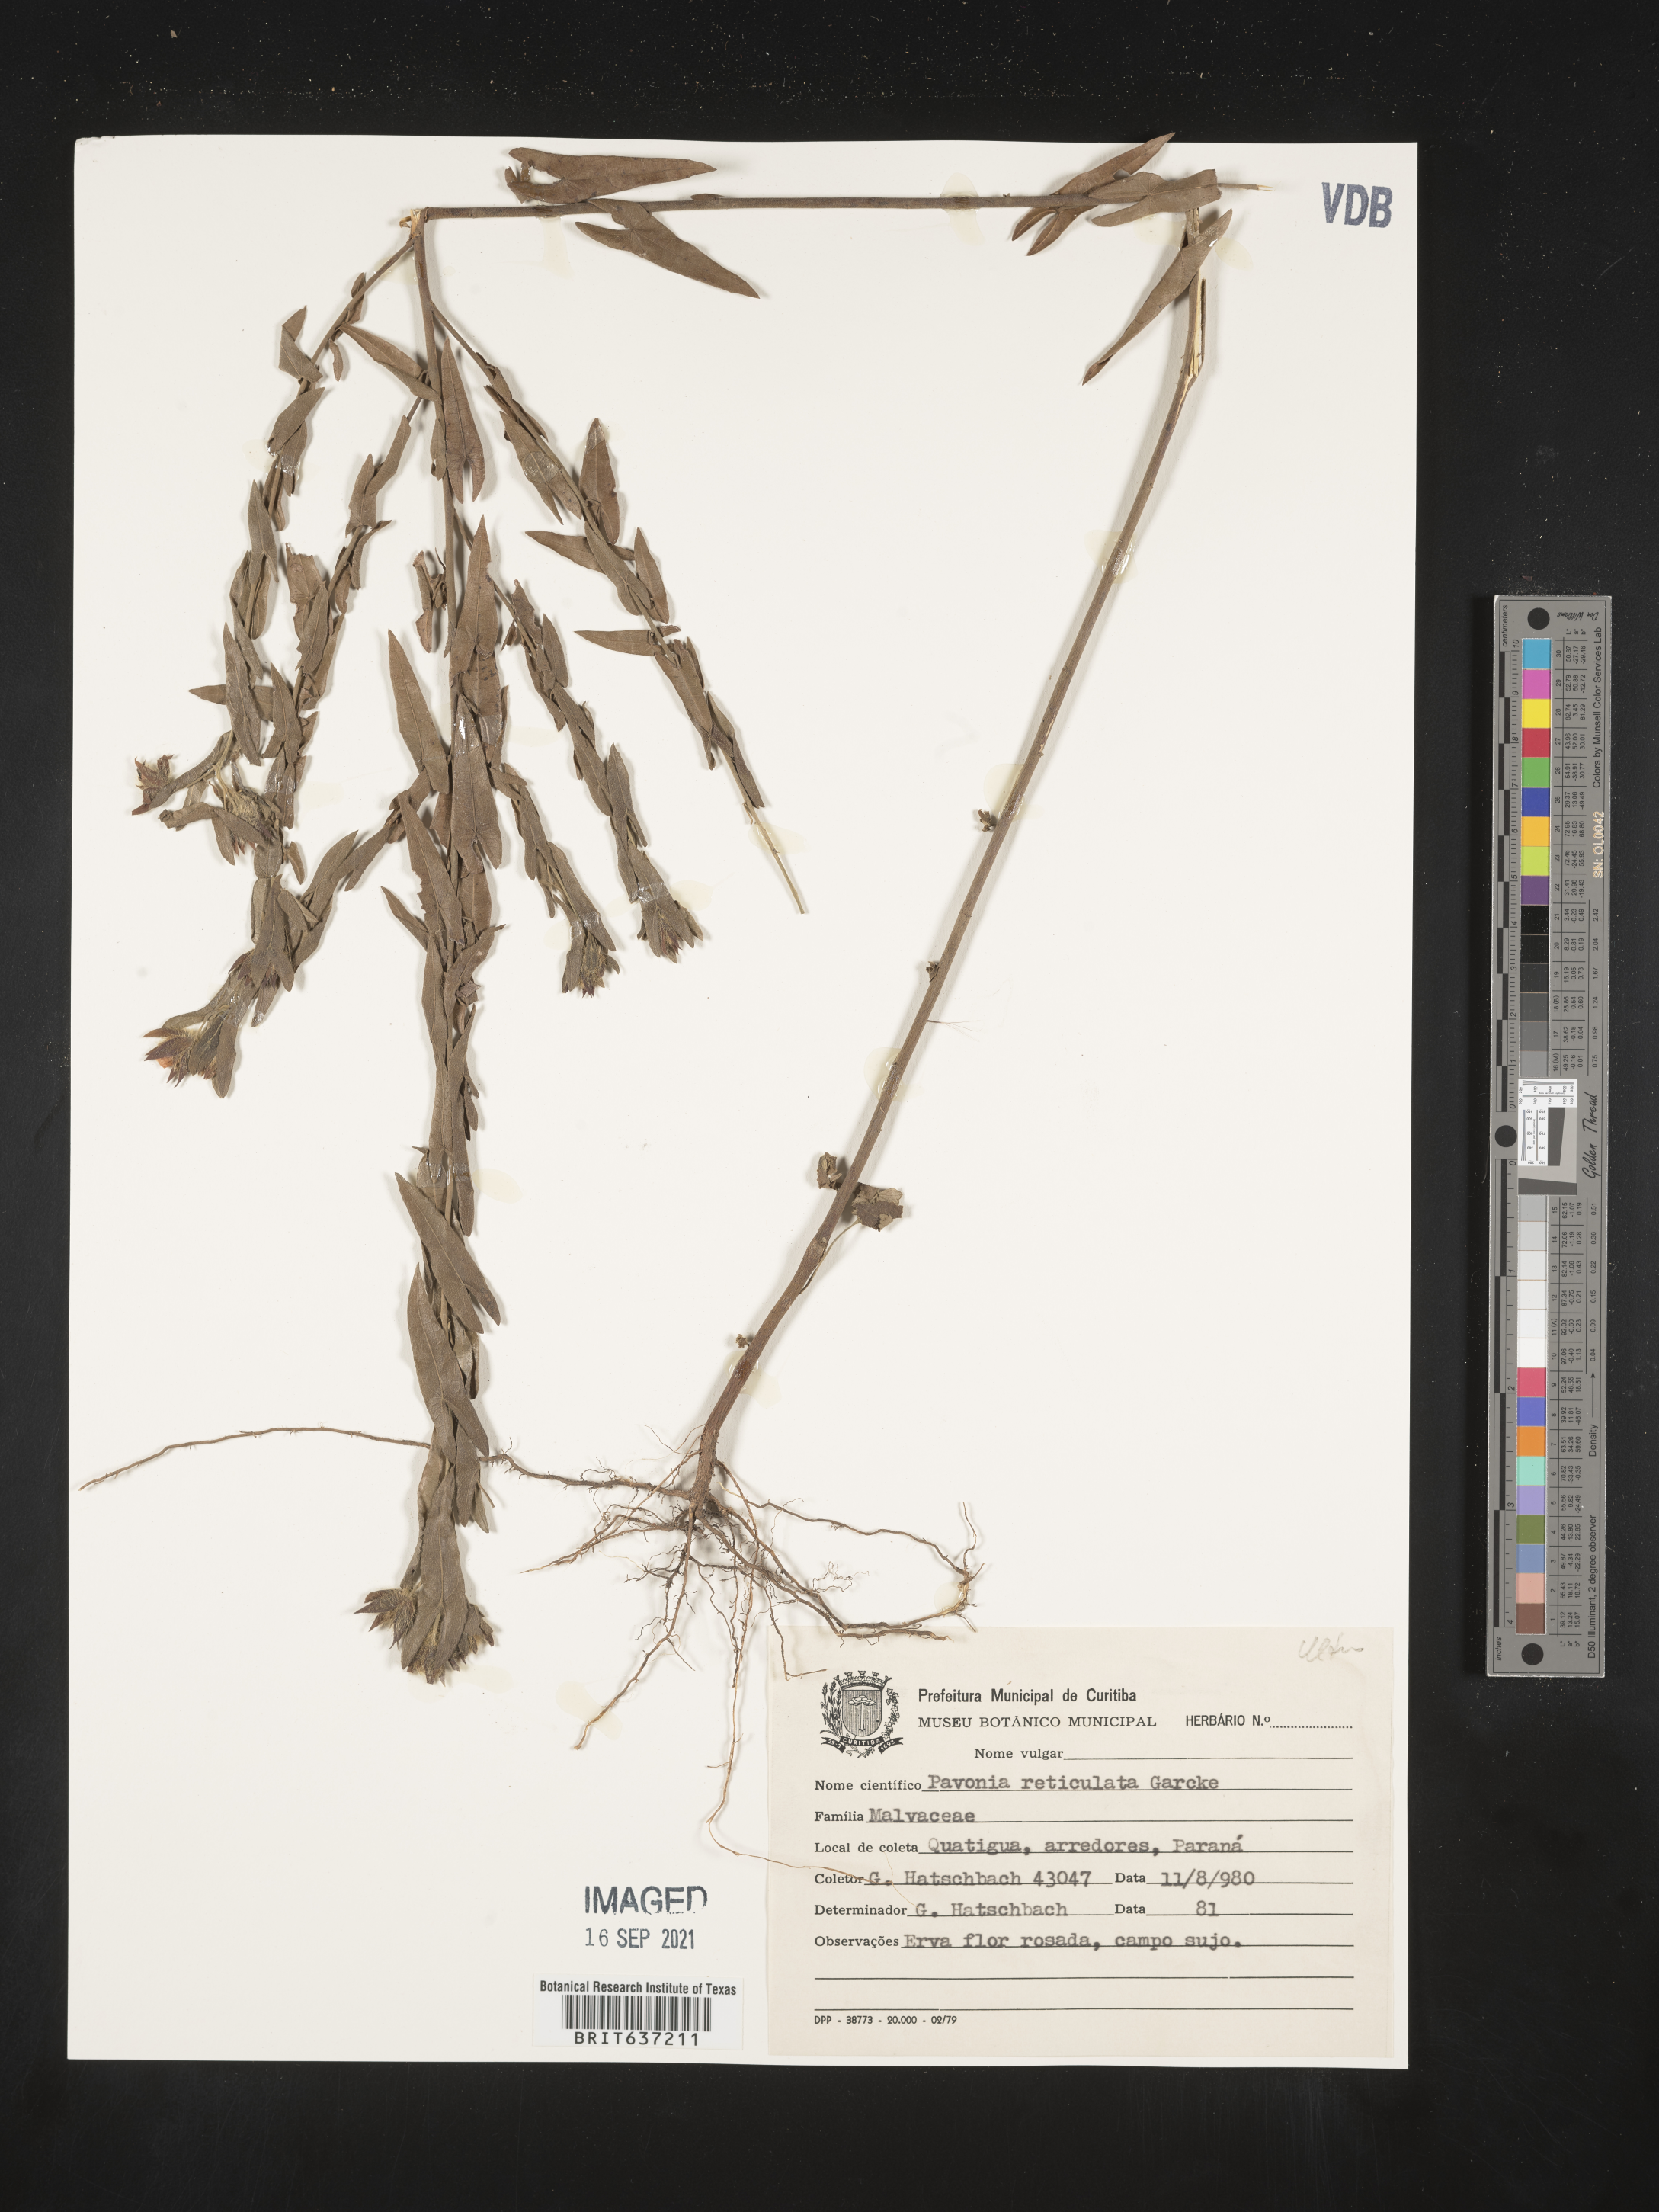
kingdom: Plantae
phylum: Tracheophyta
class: Magnoliopsida
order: Malvales
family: Malvaceae
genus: Pavonia
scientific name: Pavonia
